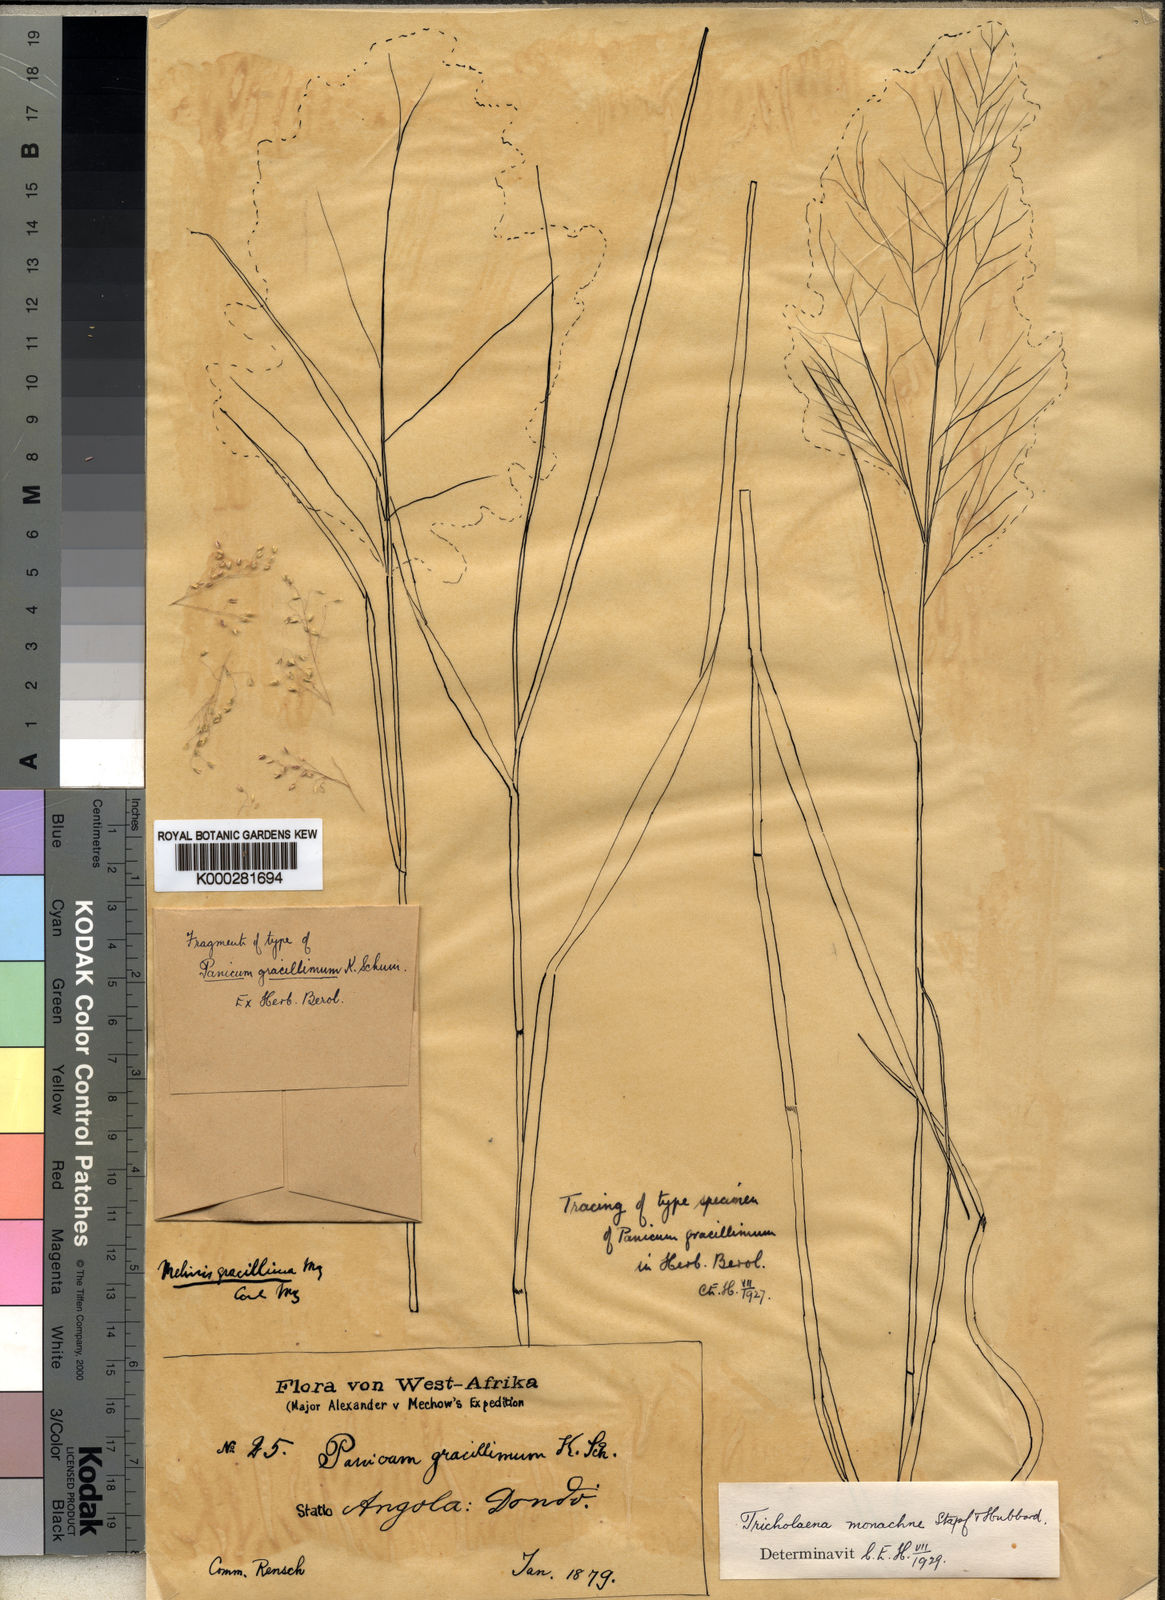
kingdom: Plantae
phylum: Tracheophyta
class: Liliopsida
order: Poales
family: Poaceae
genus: Tricholaena
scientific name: Tricholaena
